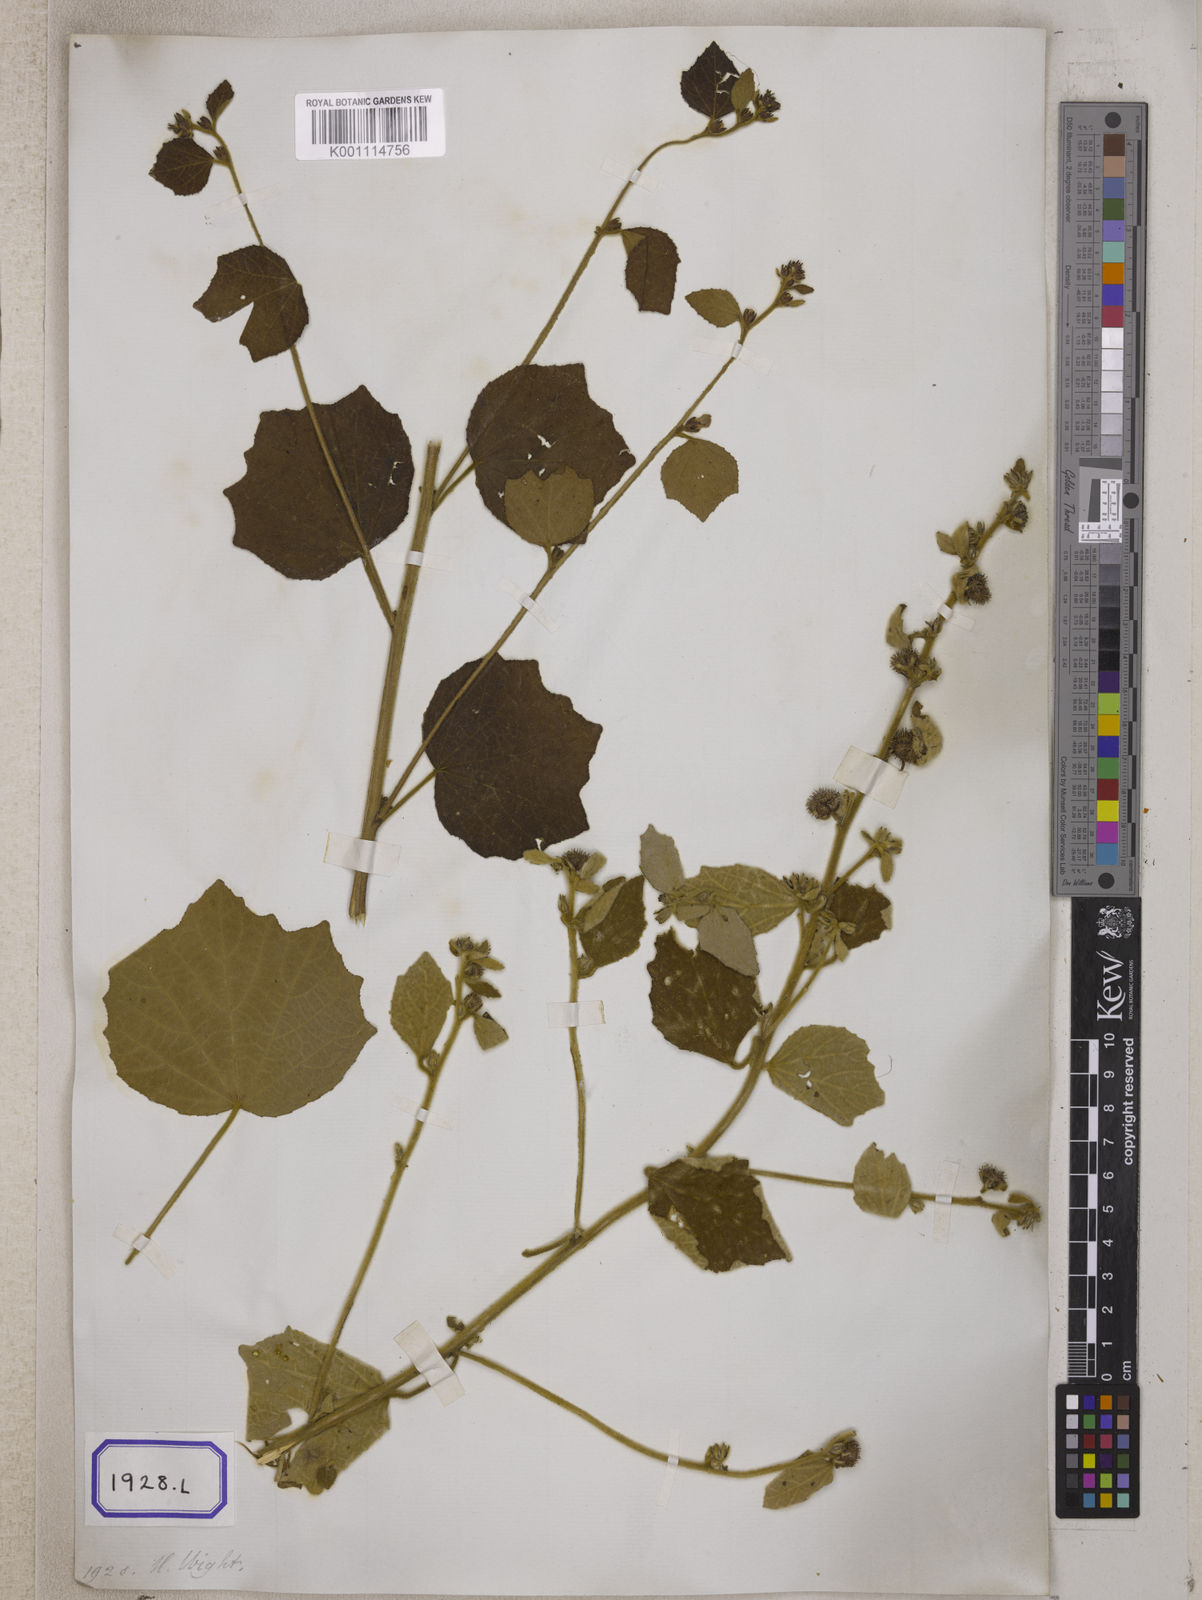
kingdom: Plantae
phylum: Tracheophyta
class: Magnoliopsida
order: Malvales
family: Malvaceae
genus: Urena
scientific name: Urena lobata
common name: Caesarweed
